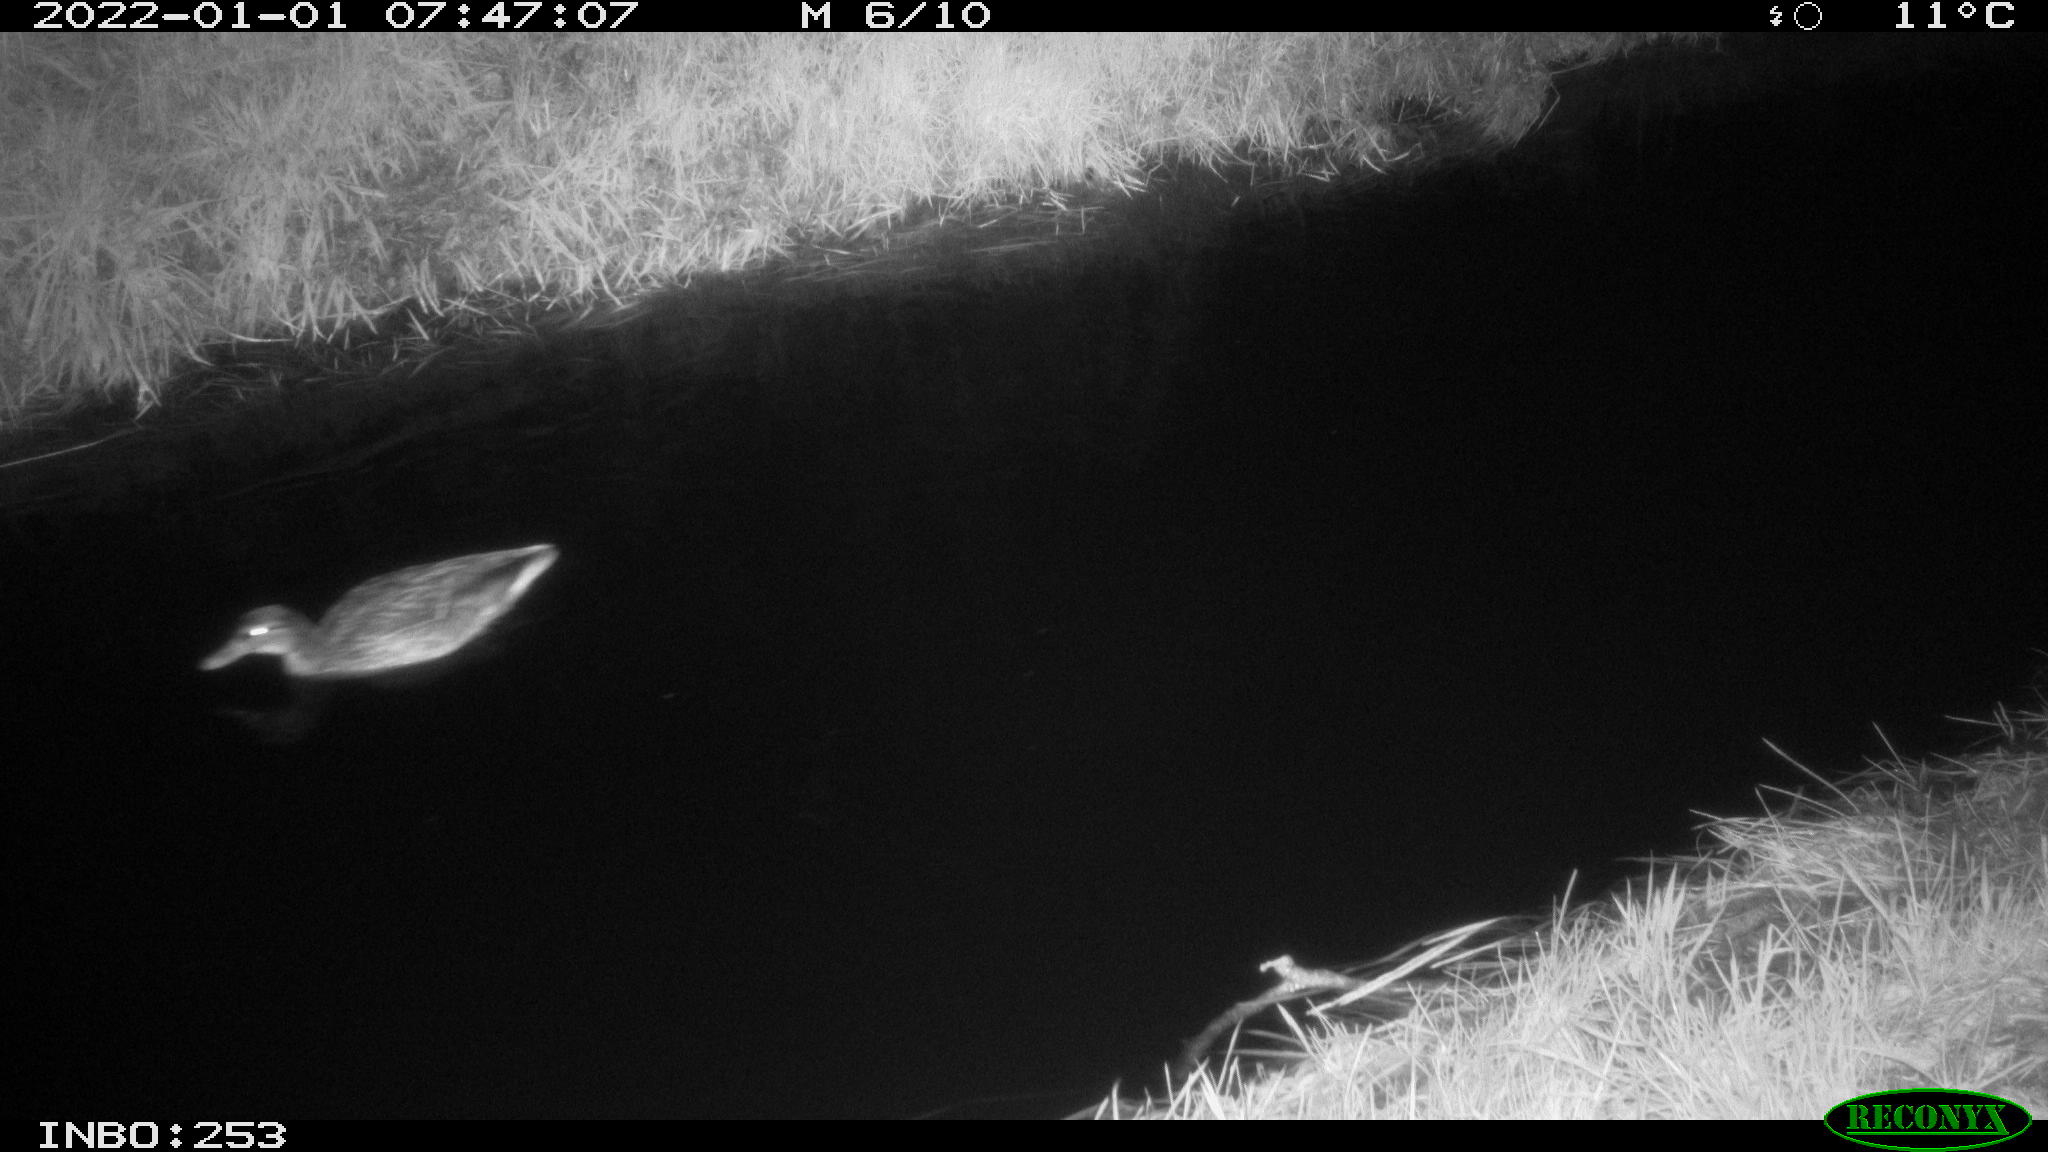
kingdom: Animalia
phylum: Chordata
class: Aves
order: Anseriformes
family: Anatidae
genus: Anas
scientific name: Anas
